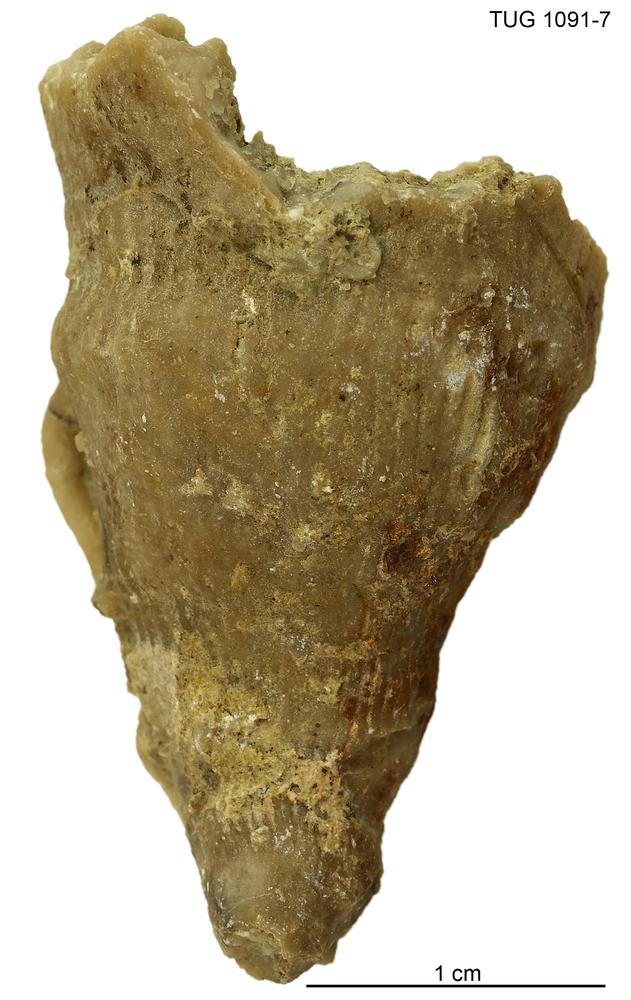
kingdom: Animalia
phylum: Cnidaria
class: Anthozoa
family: Chonophyllidae
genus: Ketophyllum
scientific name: Ketophyllum
